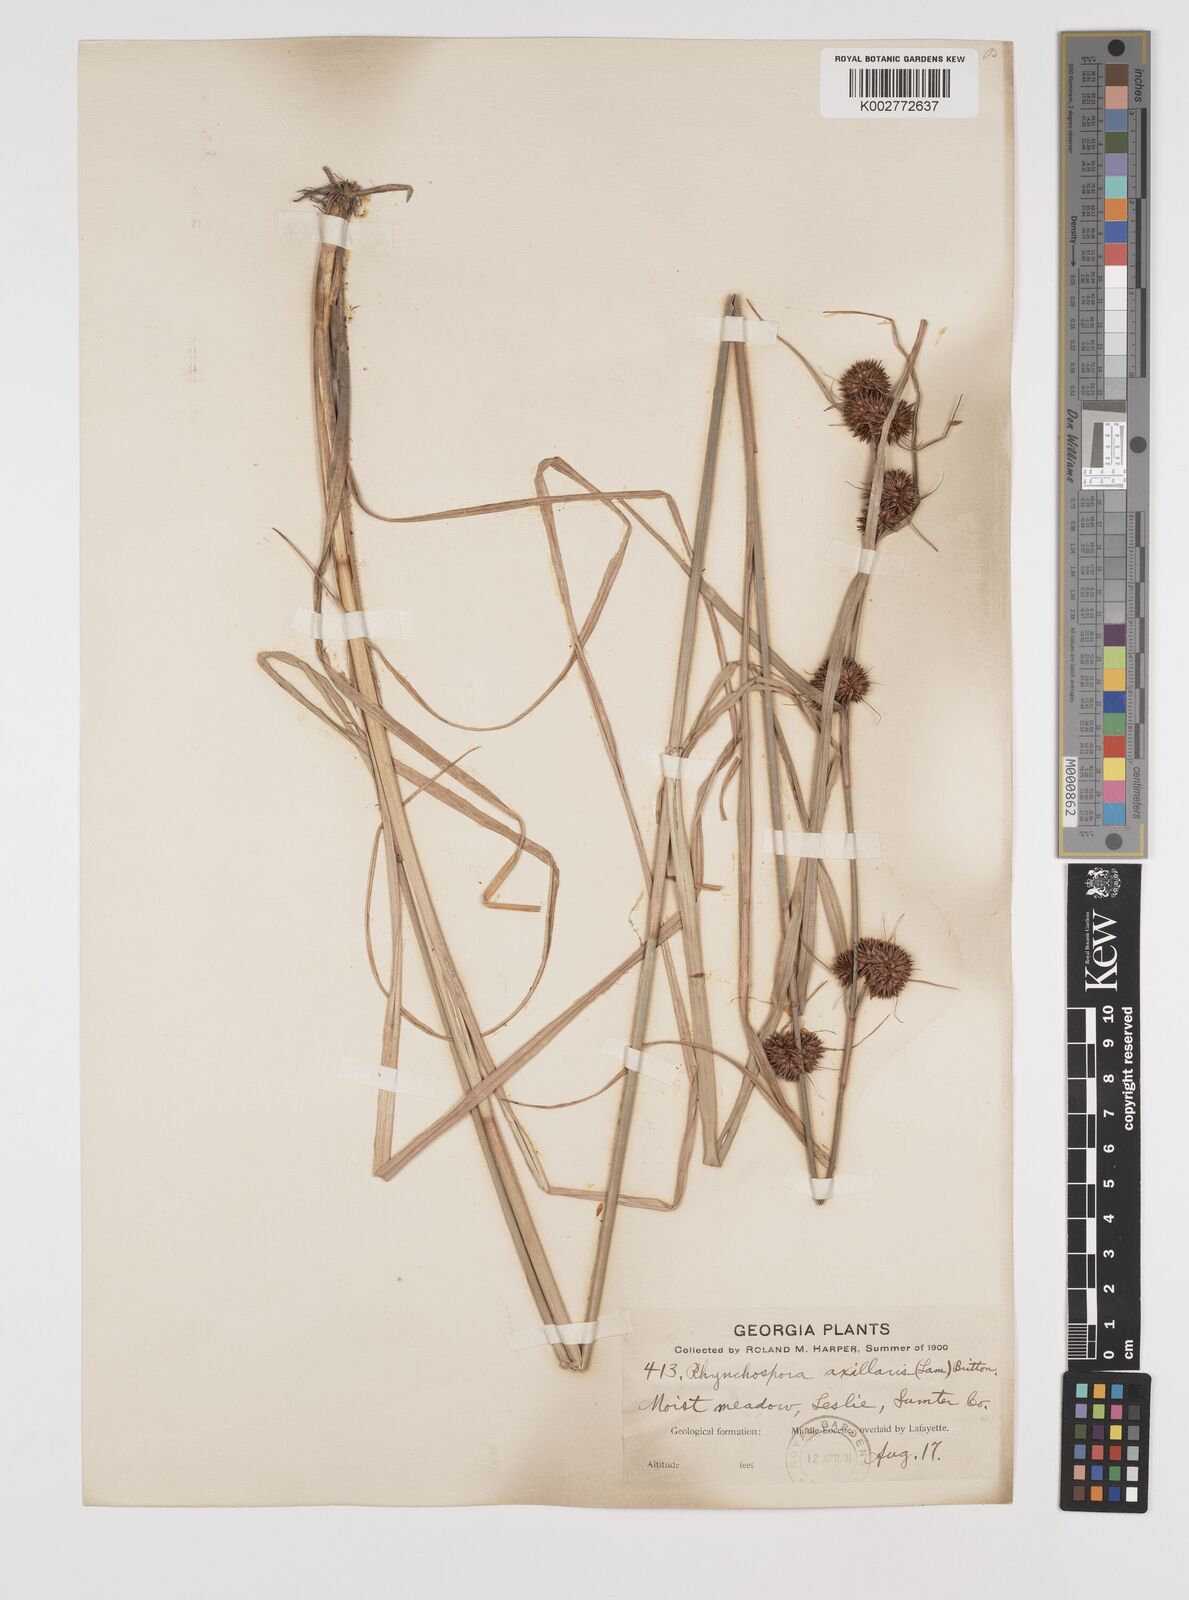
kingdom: Plantae
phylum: Tracheophyta
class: Liliopsida
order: Poales
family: Cyperaceae
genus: Rhynchospora
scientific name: Rhynchospora glomerata
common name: Cluster beak sedge
